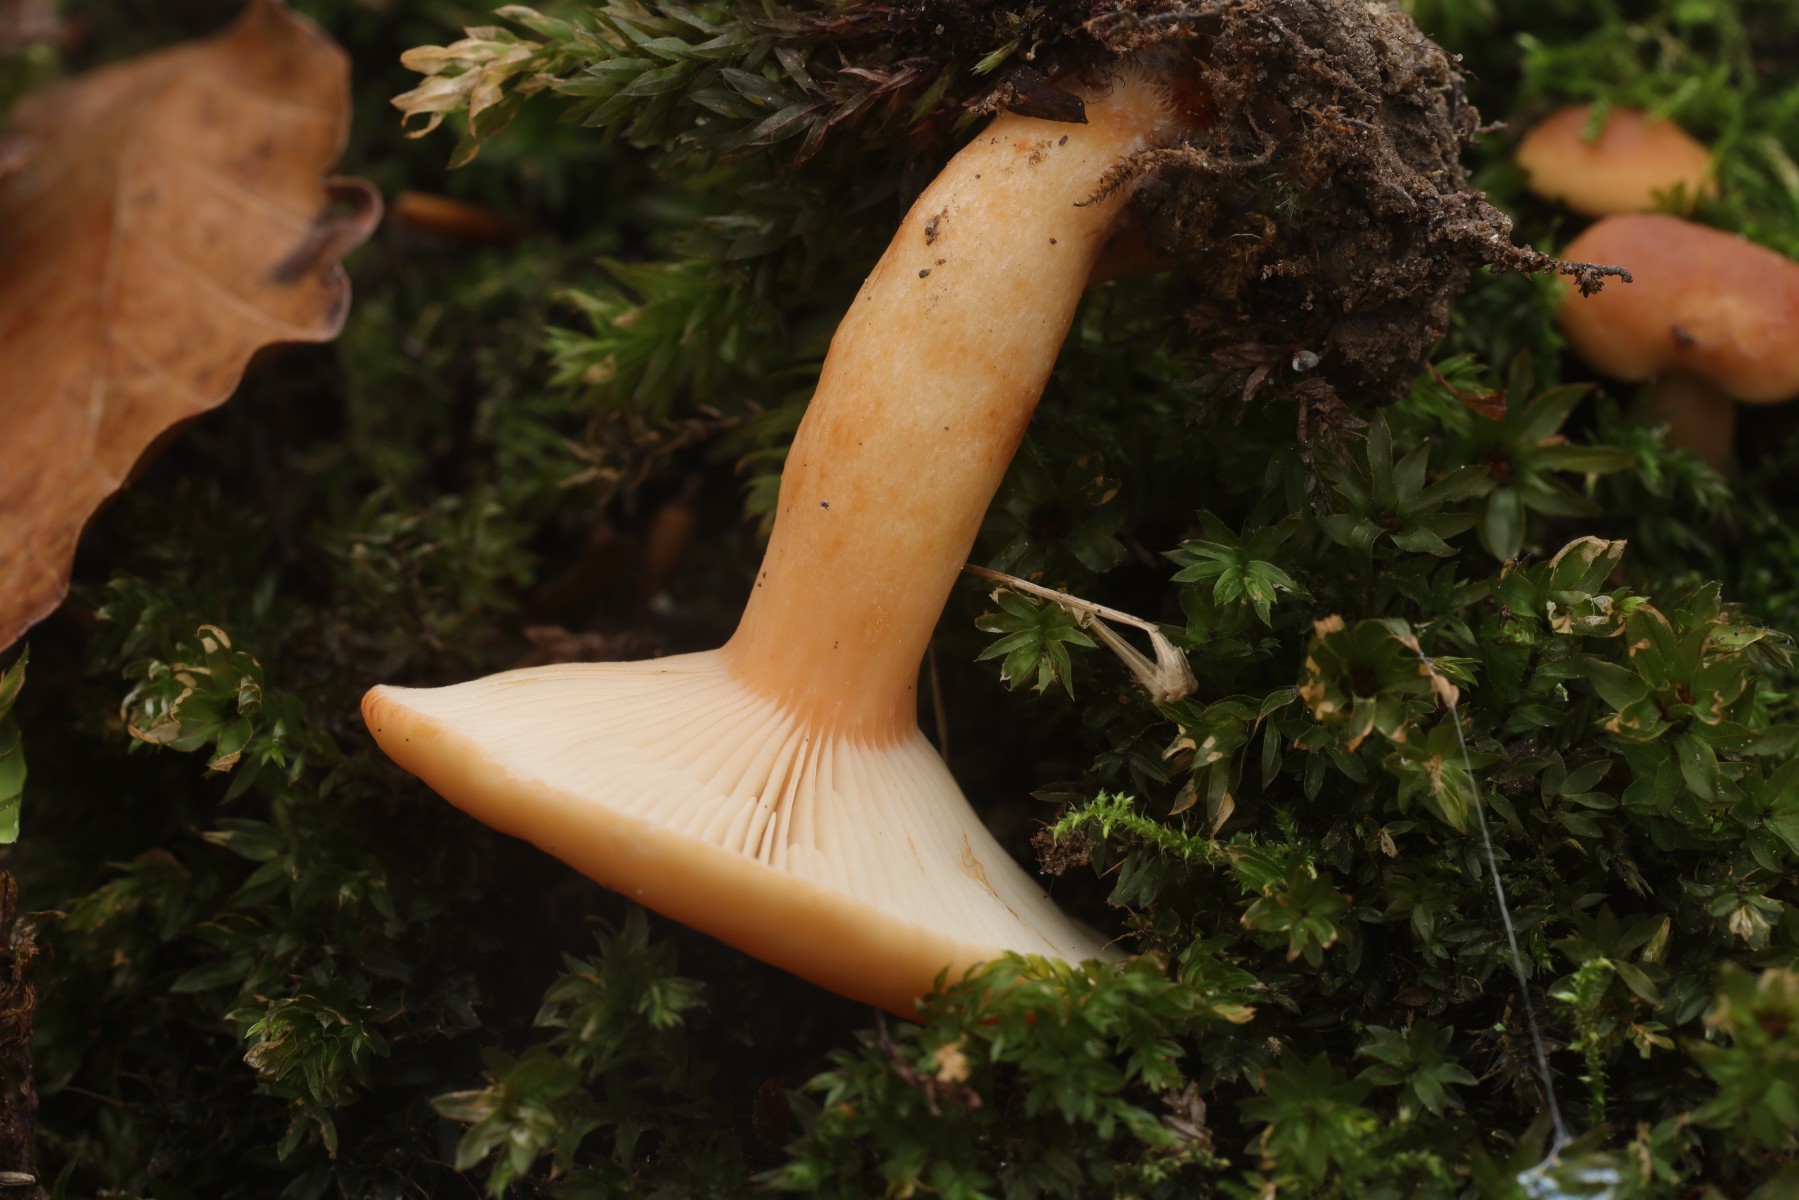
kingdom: Fungi
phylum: Basidiomycota
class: Agaricomycetes
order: Russulales
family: Russulaceae
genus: Lactarius
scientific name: Lactarius aurantiacus
